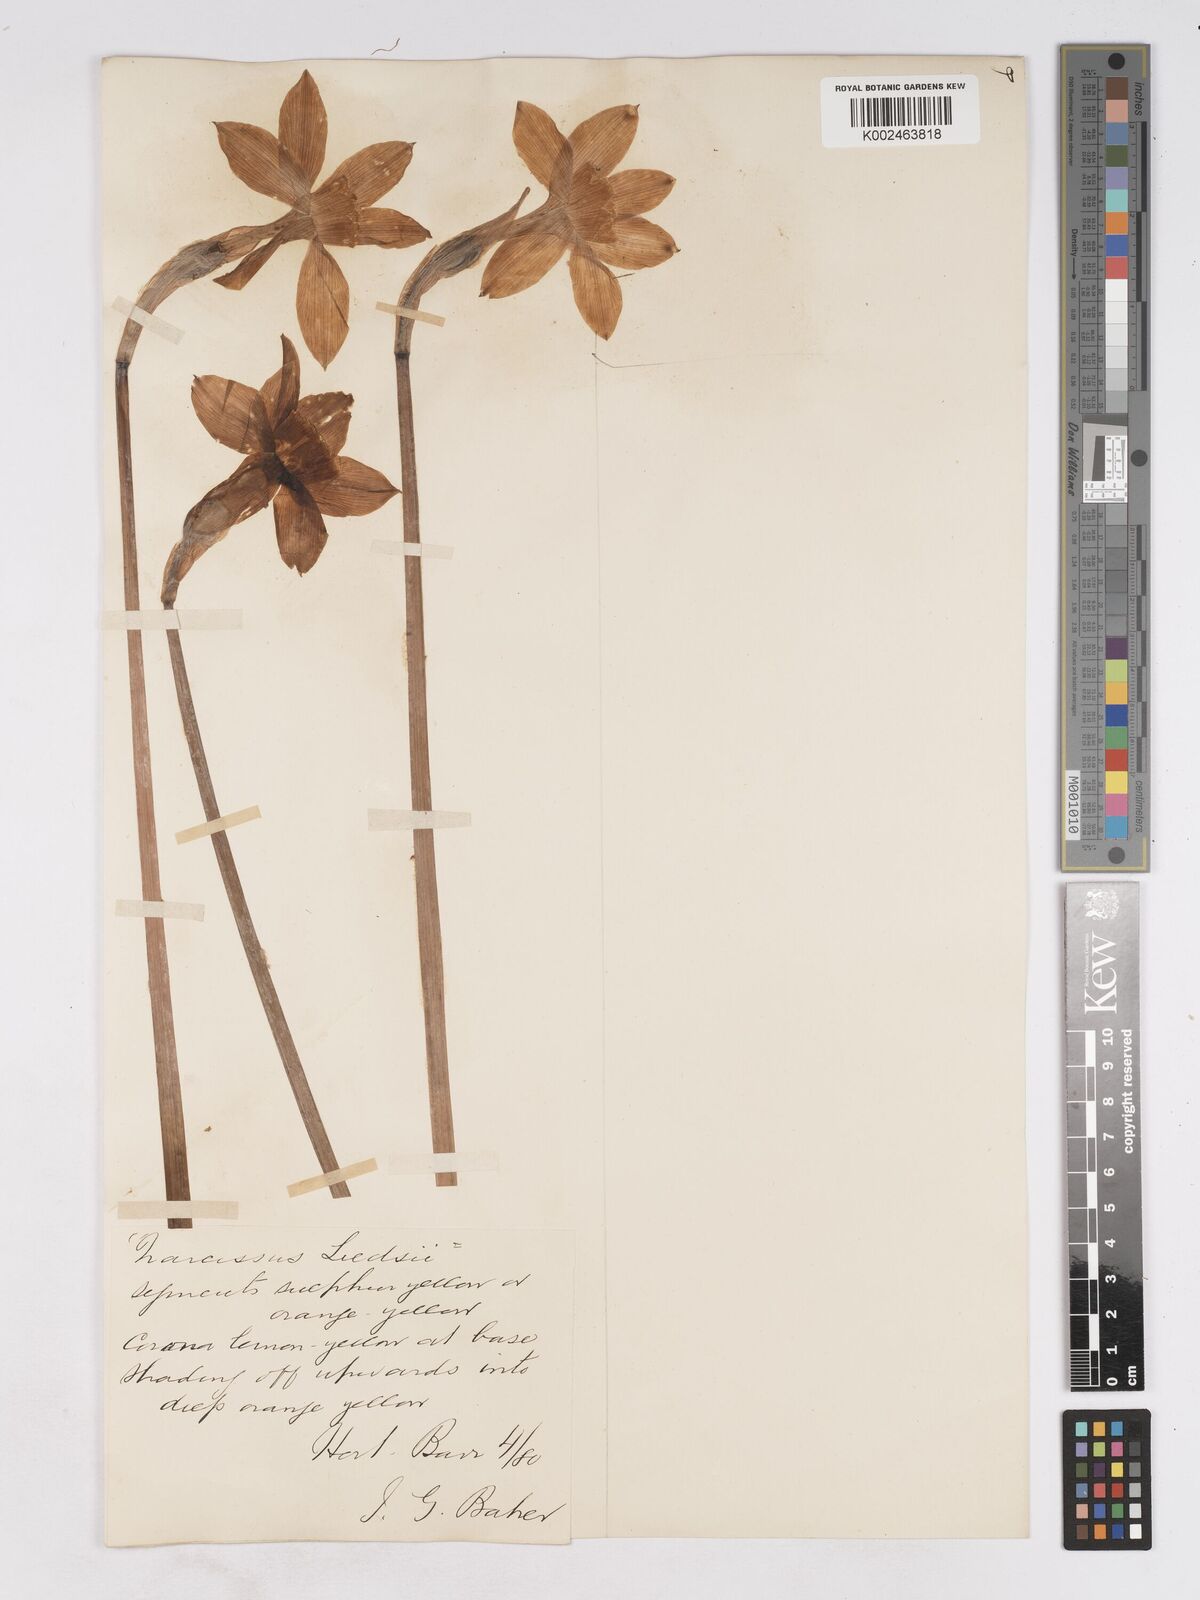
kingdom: Plantae
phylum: Tracheophyta
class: Liliopsida
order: Asparagales
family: Amaryllidaceae
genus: Narcissus
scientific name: Narcissus leedsii
